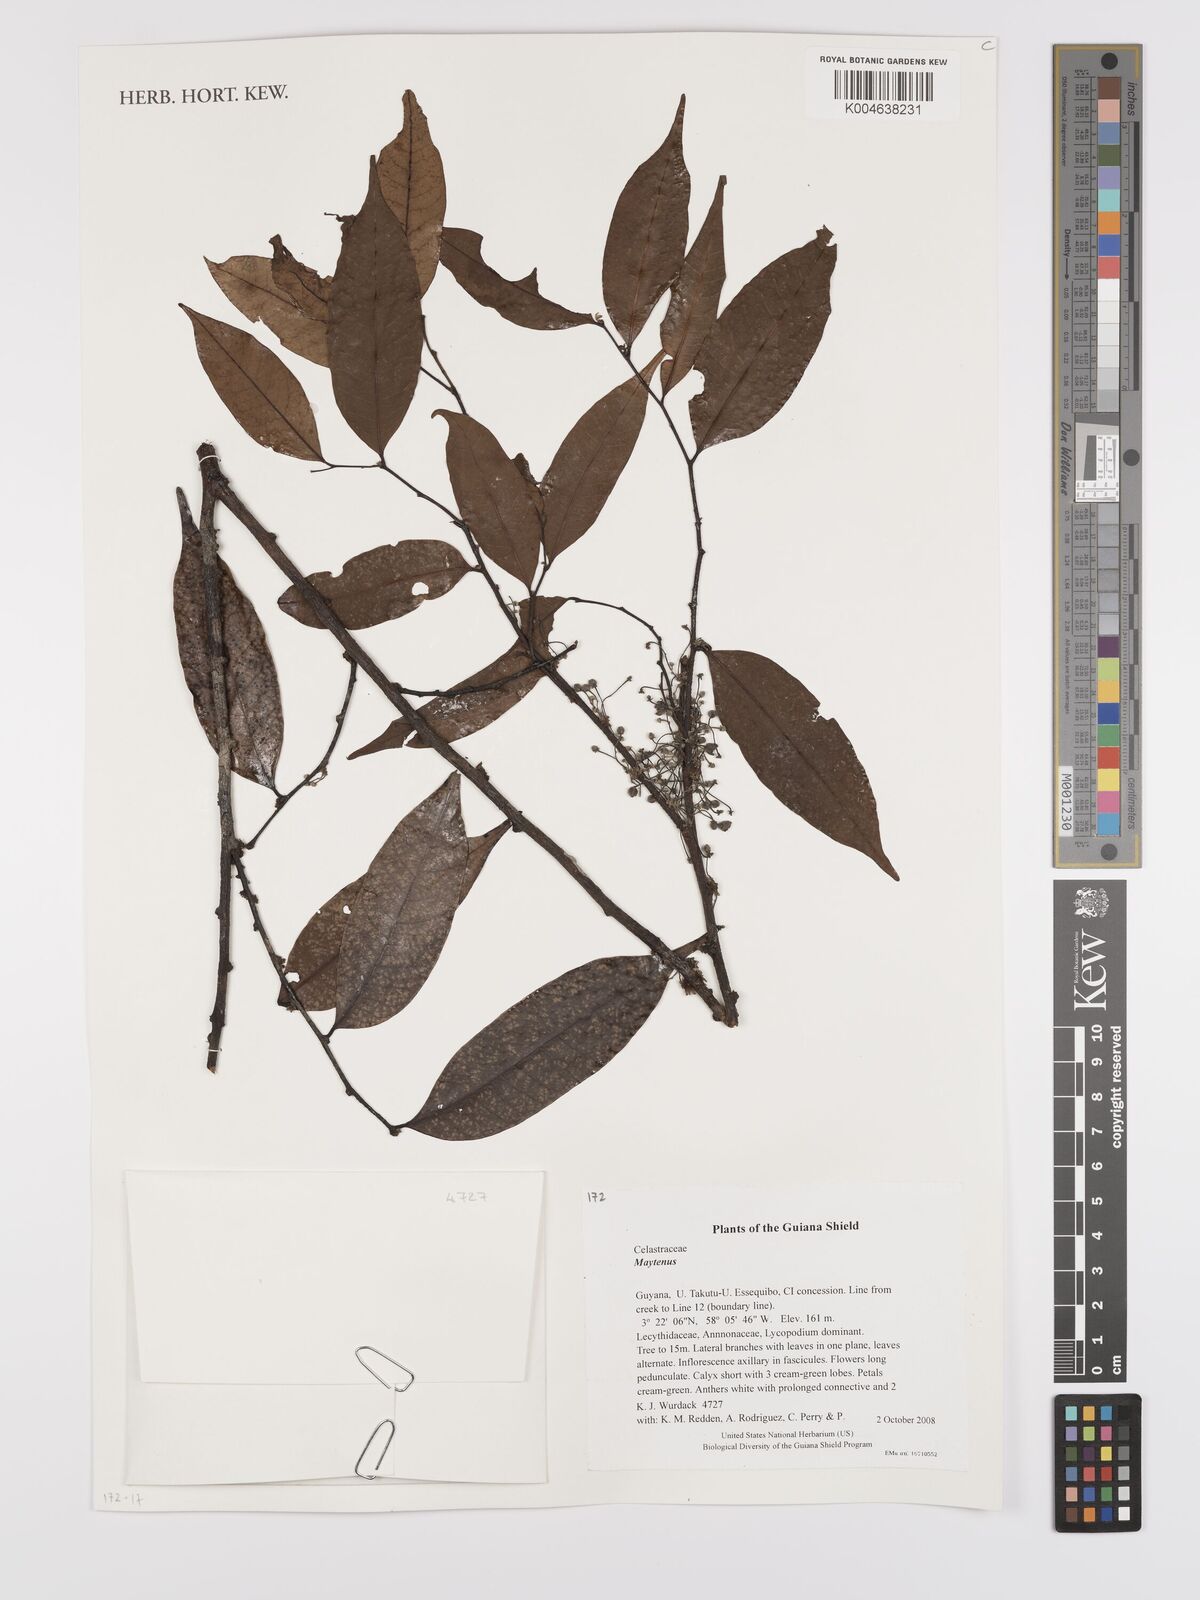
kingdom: Plantae
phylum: Tracheophyta
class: Magnoliopsida
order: Celastrales
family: Celastraceae
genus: Maytenus
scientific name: Maytenus
